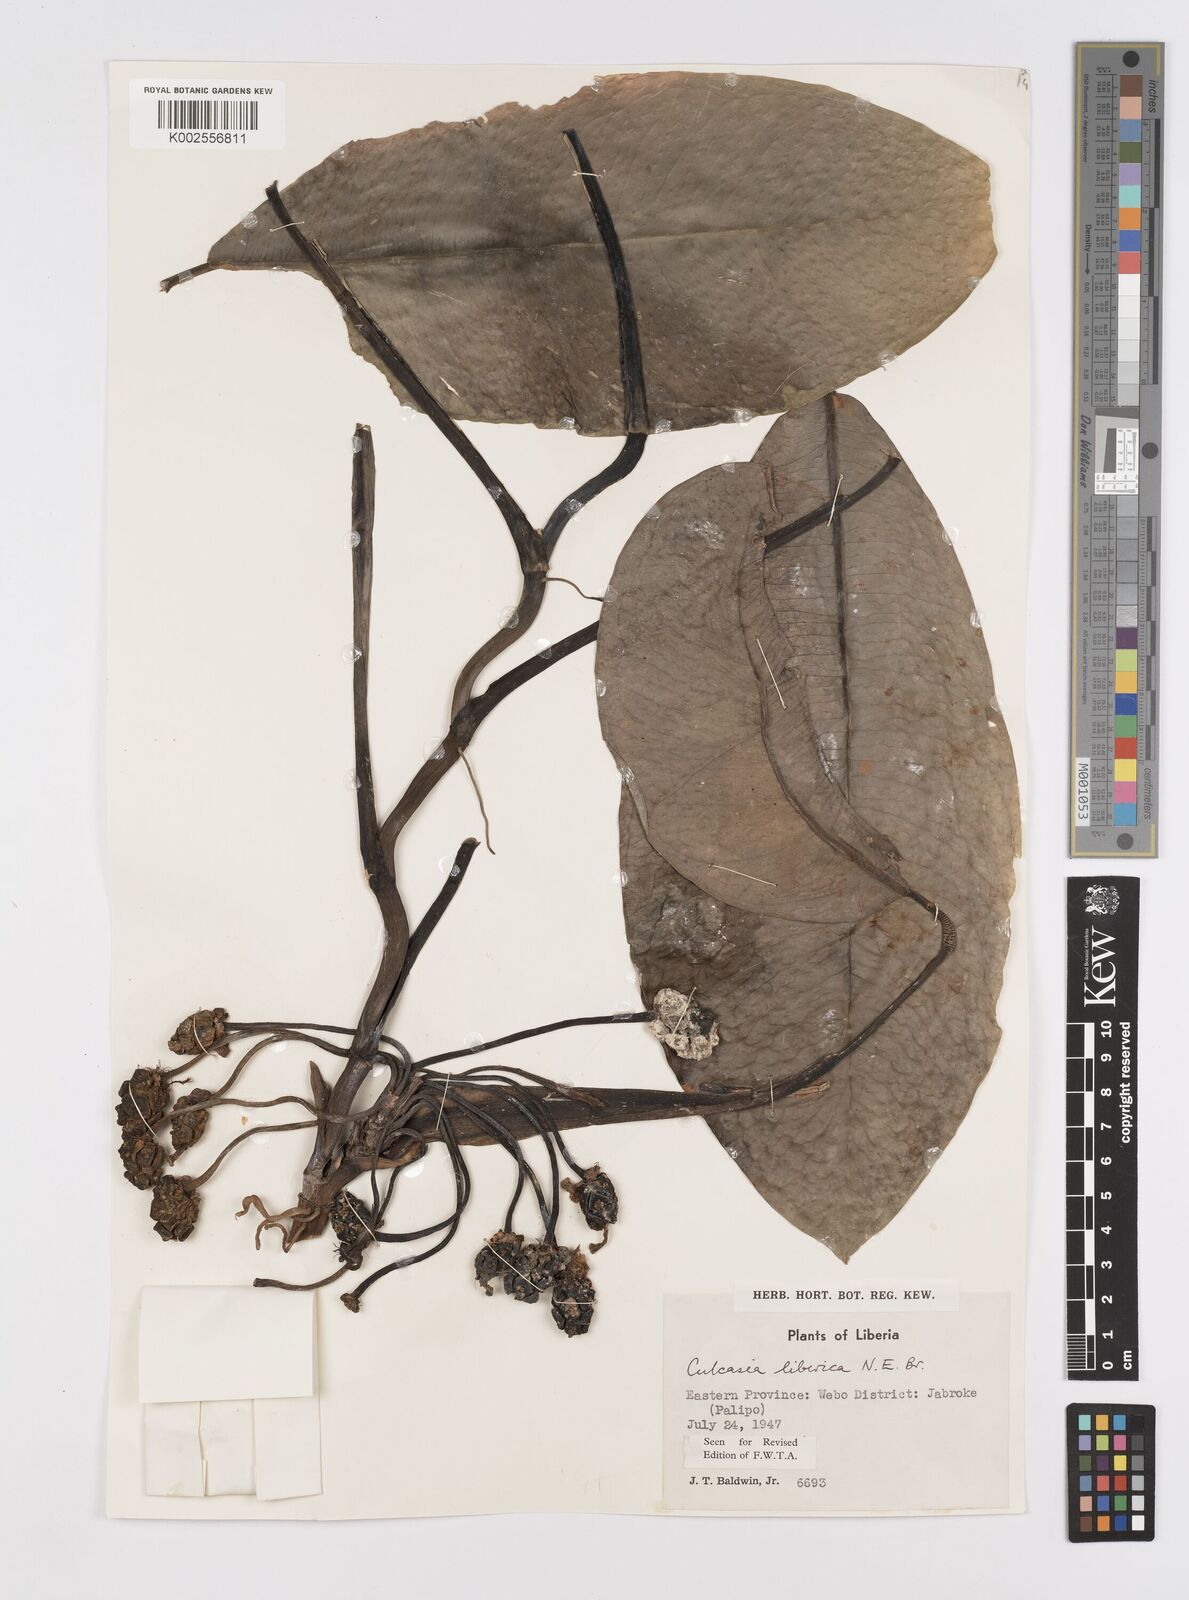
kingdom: Plantae
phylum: Tracheophyta
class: Liliopsida
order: Alismatales
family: Araceae
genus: Culcasia
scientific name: Culcasia liberica
